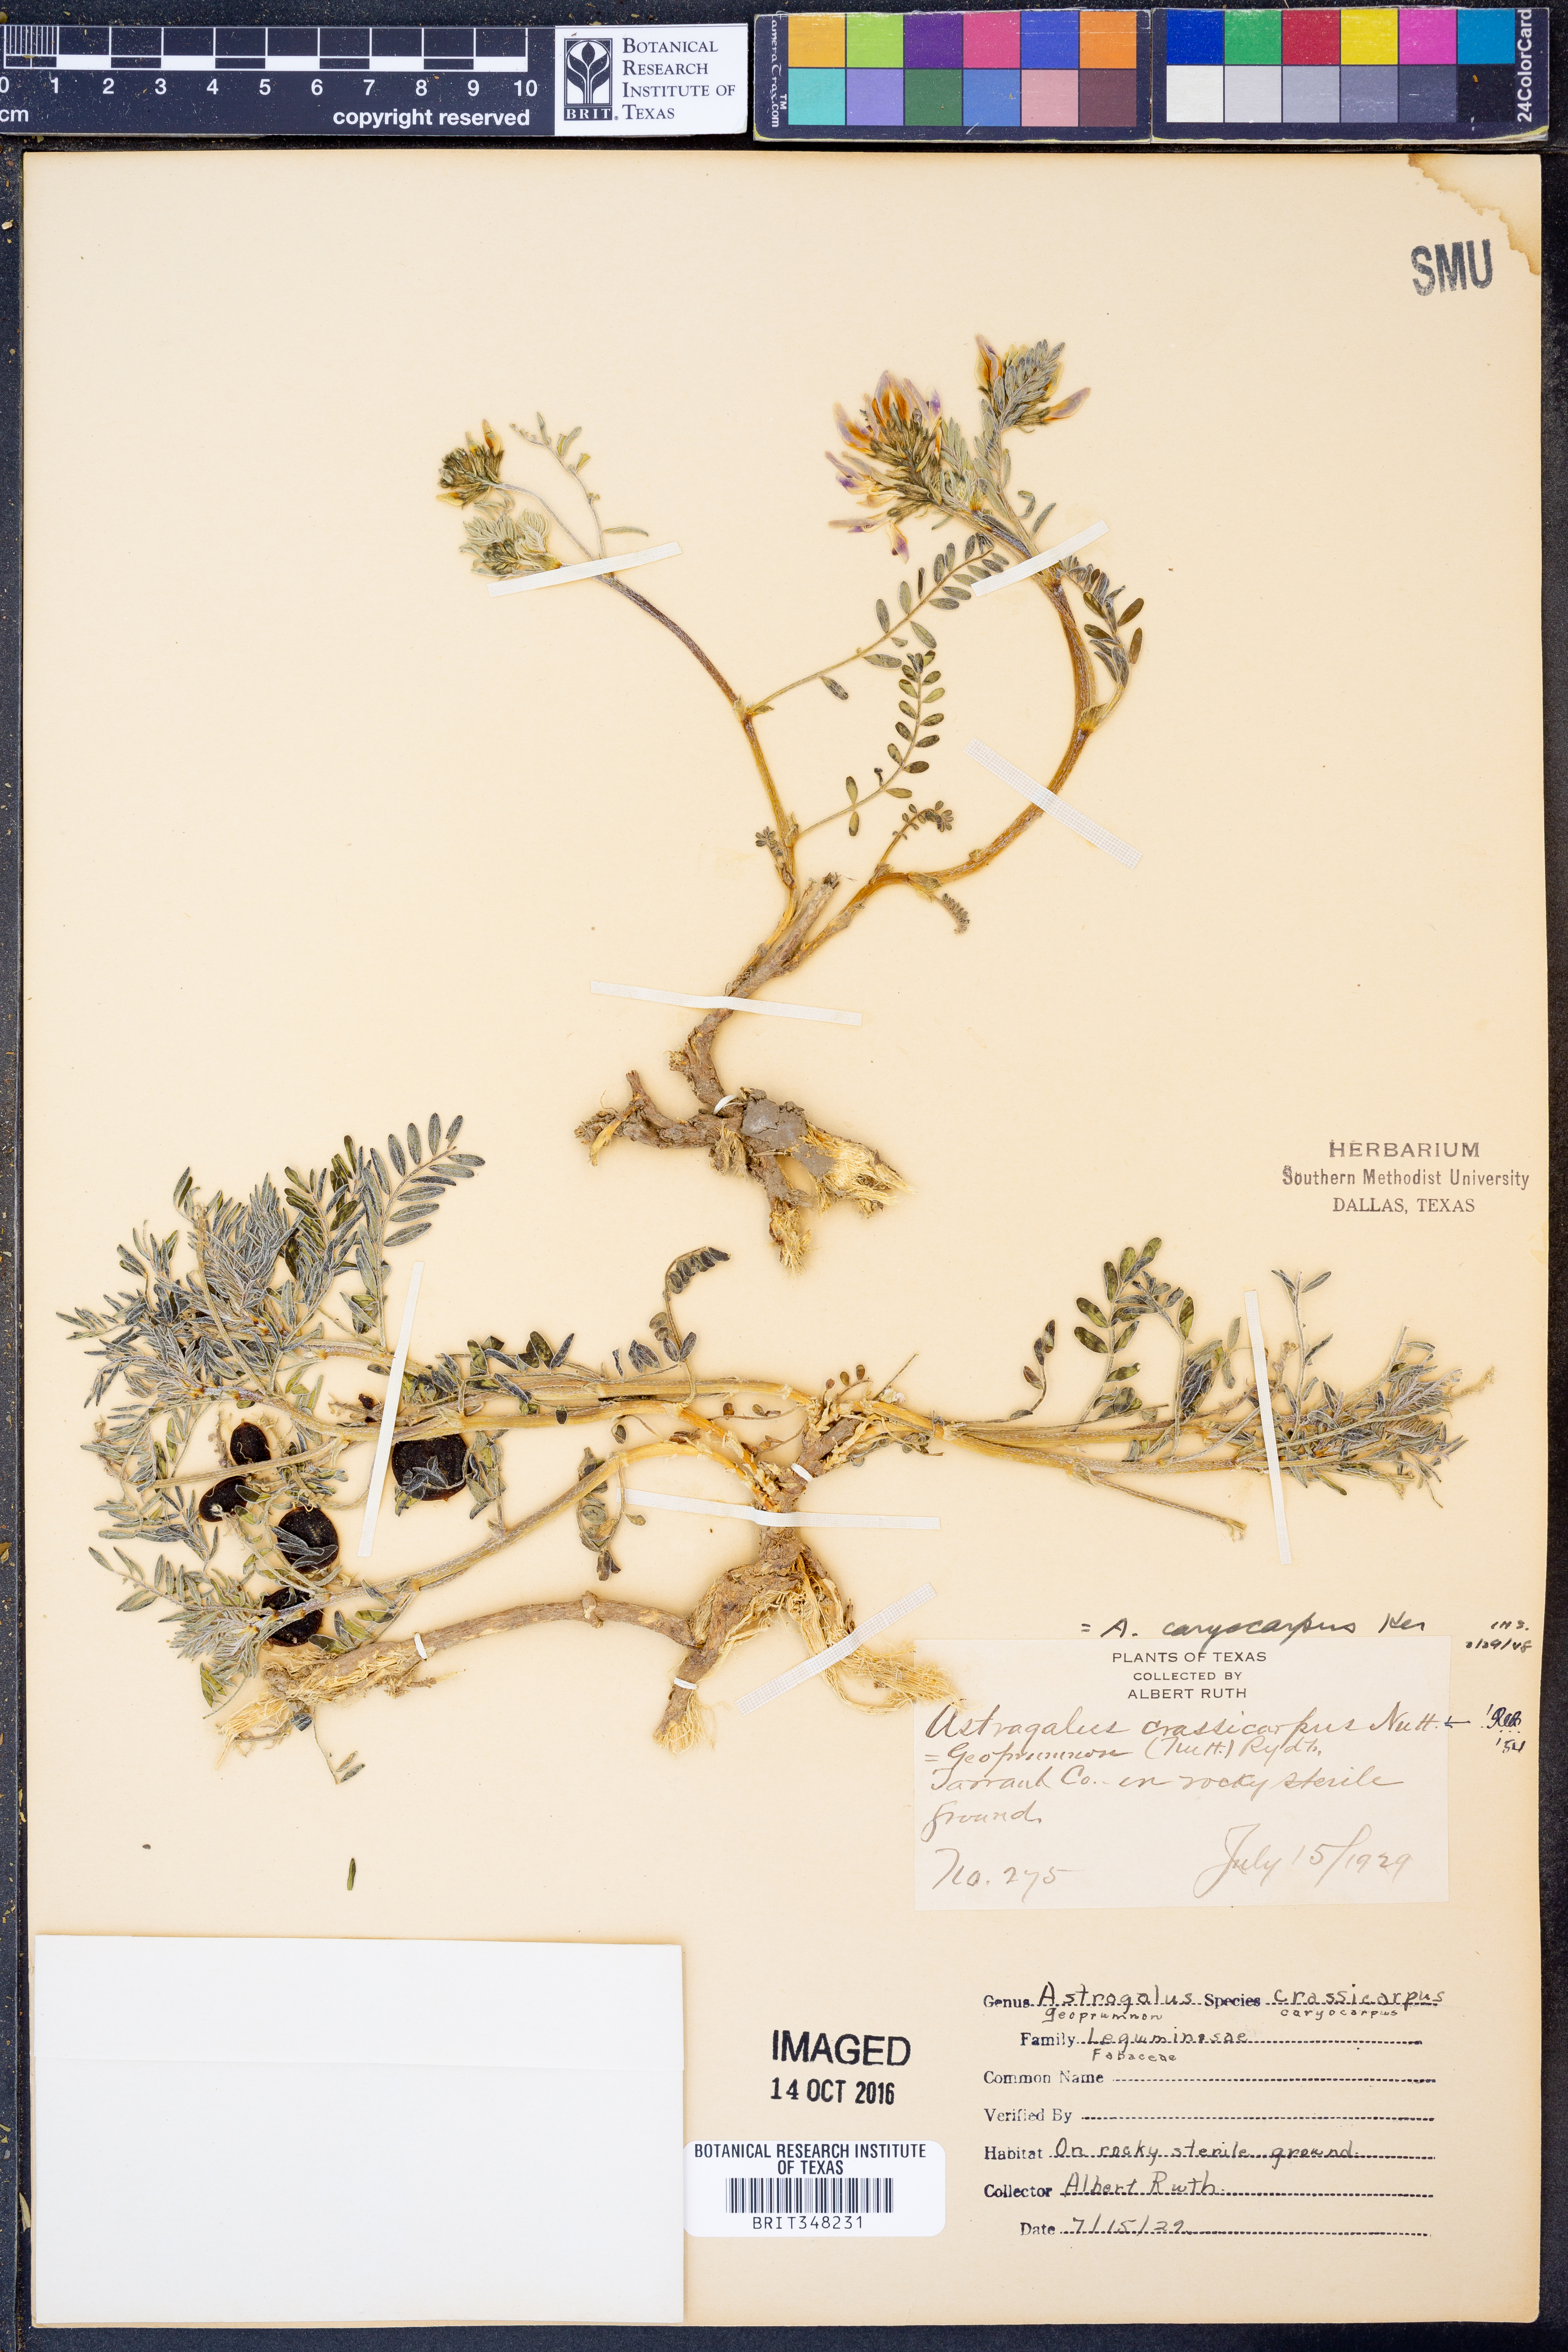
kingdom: Plantae
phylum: Tracheophyta
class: Magnoliopsida
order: Fabales
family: Fabaceae
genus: Astragalus
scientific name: Astragalus crassicarpus
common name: Ground-plum milk-vetch
